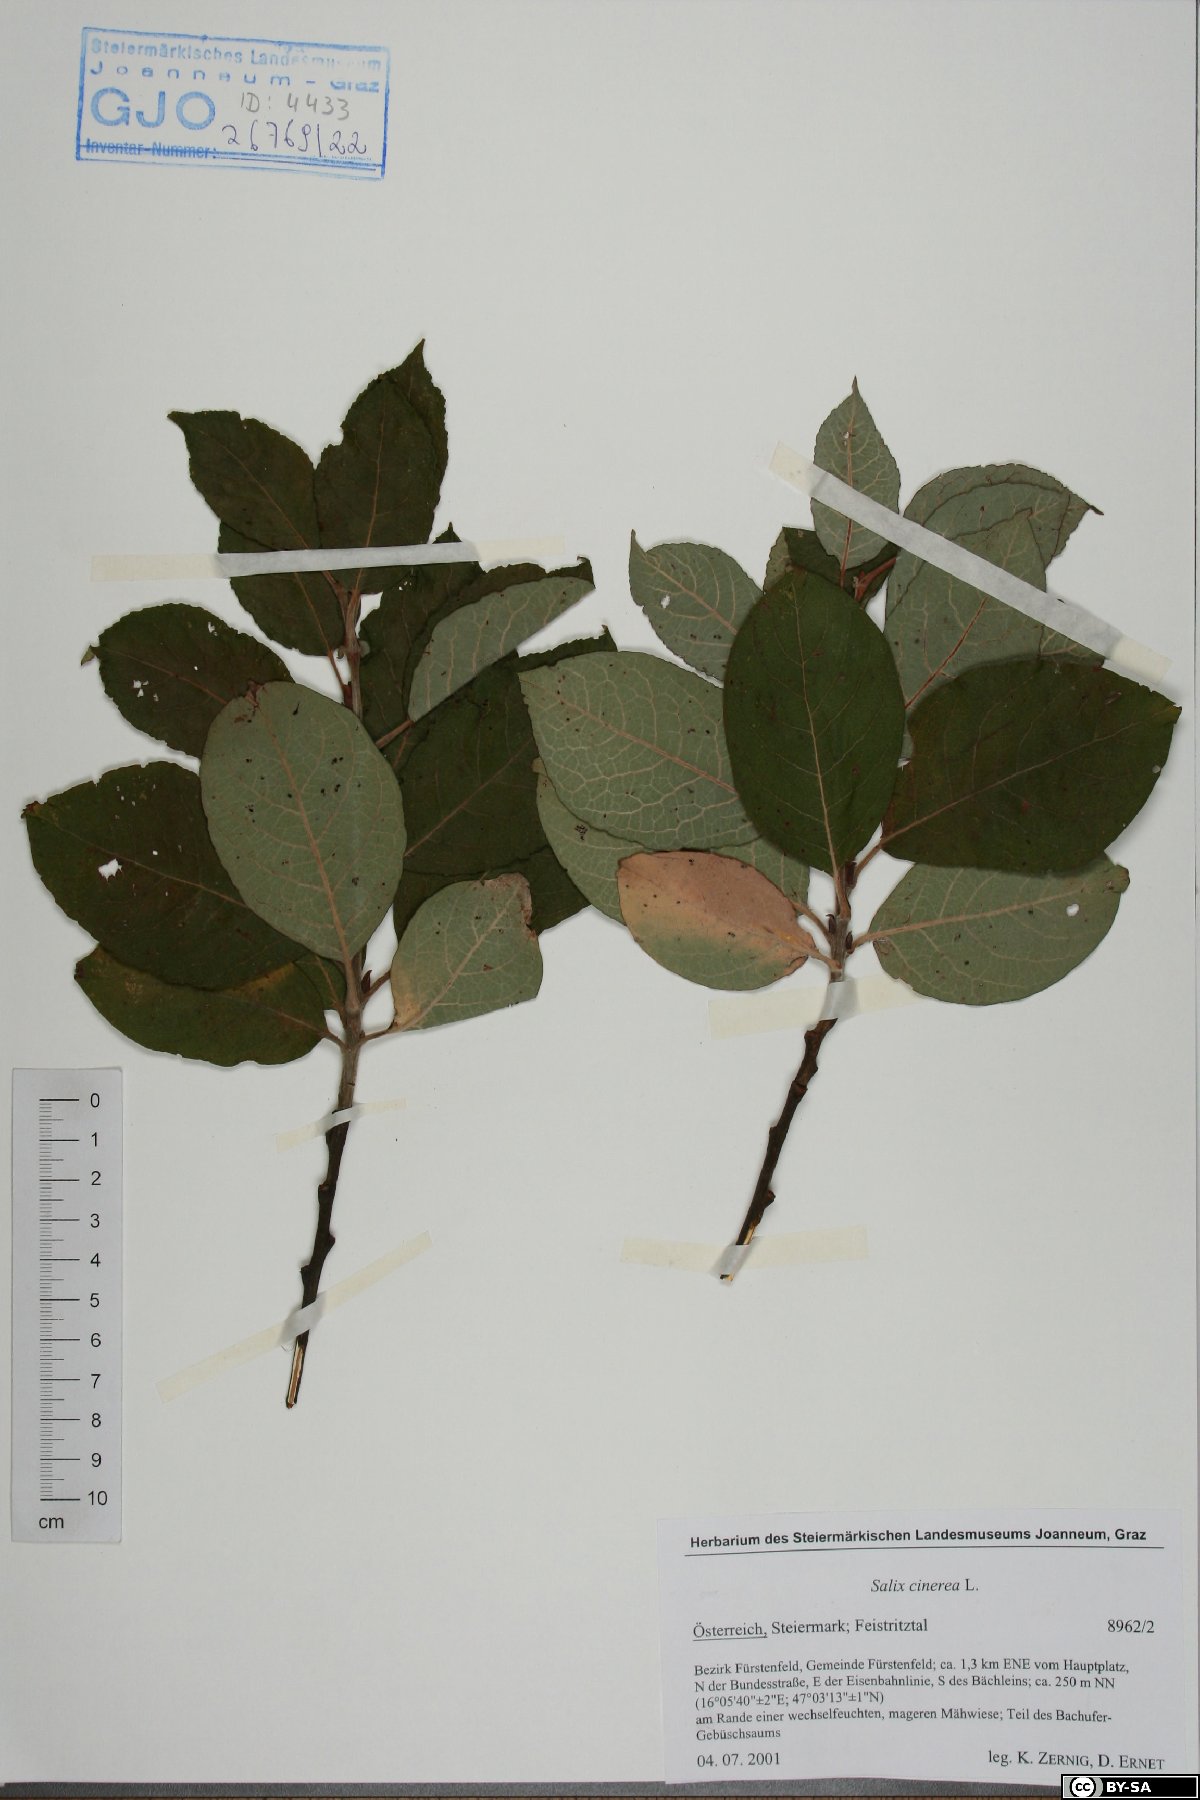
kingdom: Plantae
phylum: Tracheophyta
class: Magnoliopsida
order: Malpighiales
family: Salicaceae
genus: Salix
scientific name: Salix cinerea
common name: Common sallow
